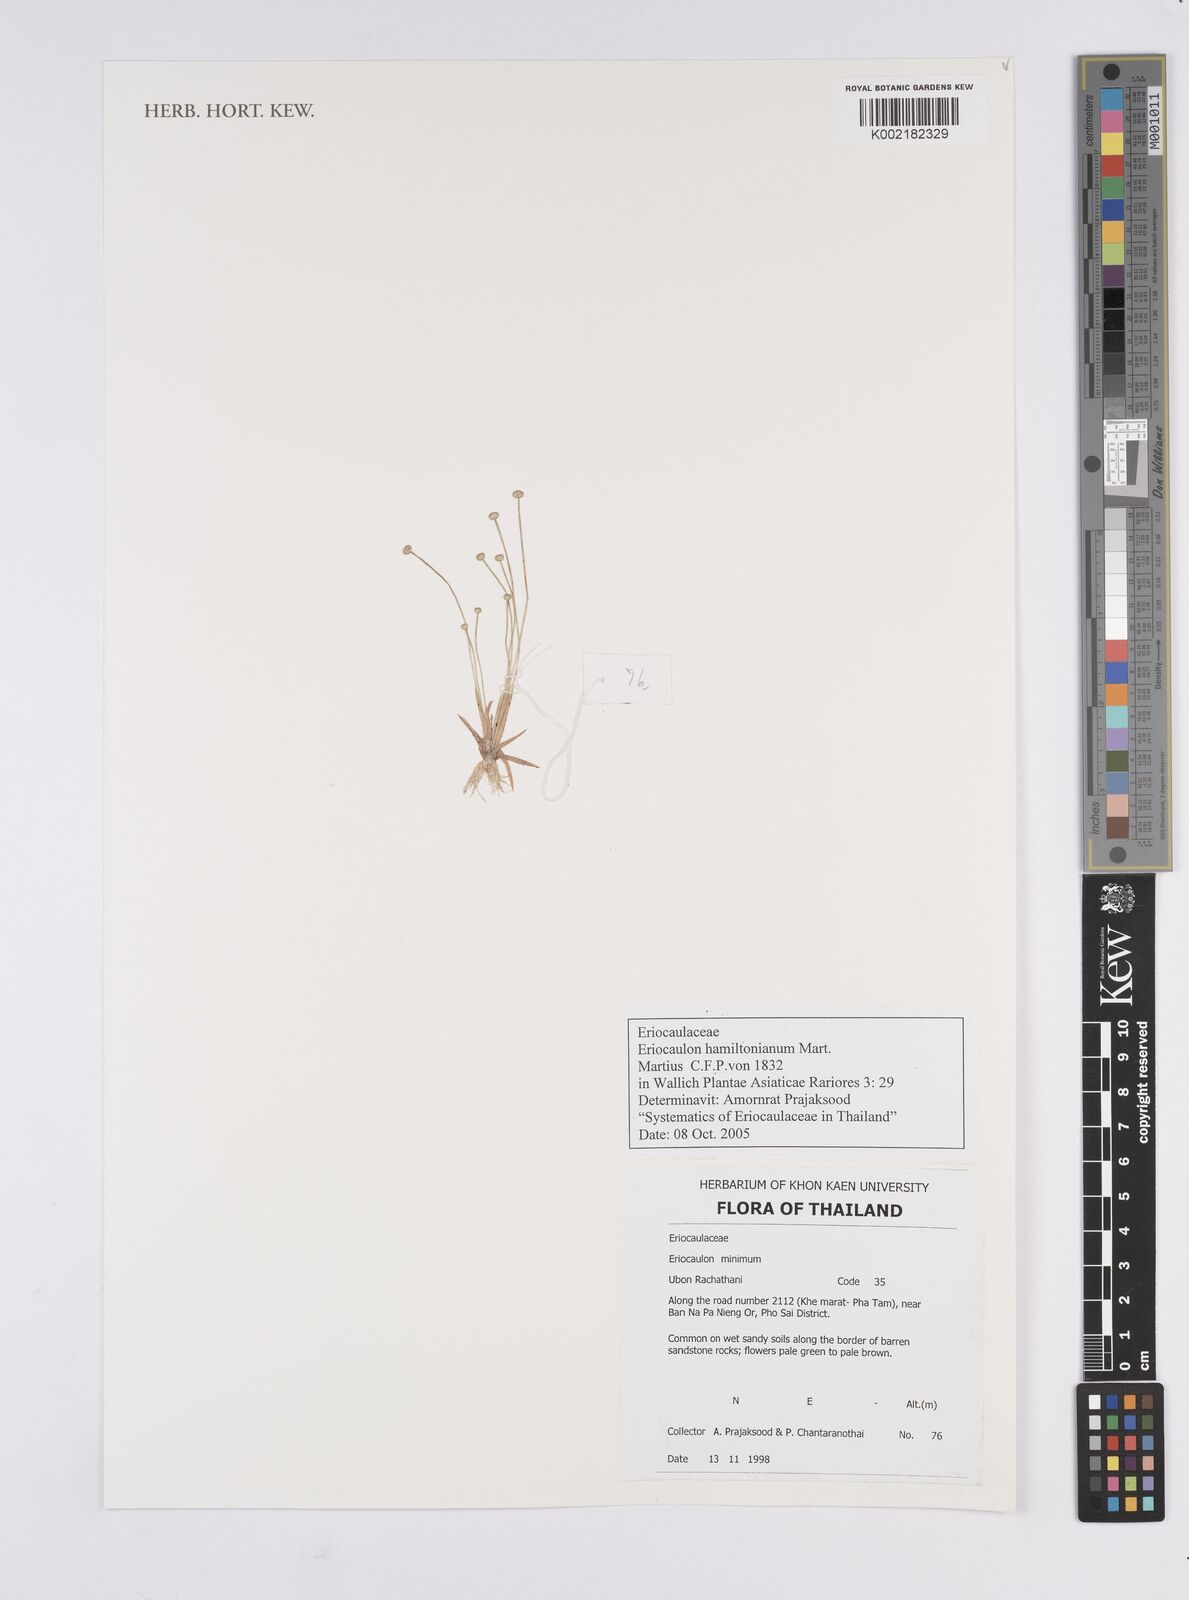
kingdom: Plantae
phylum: Tracheophyta
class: Liliopsida
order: Poales
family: Eriocaulaceae
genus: Eriocaulon
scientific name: Eriocaulon hamiltonianum
